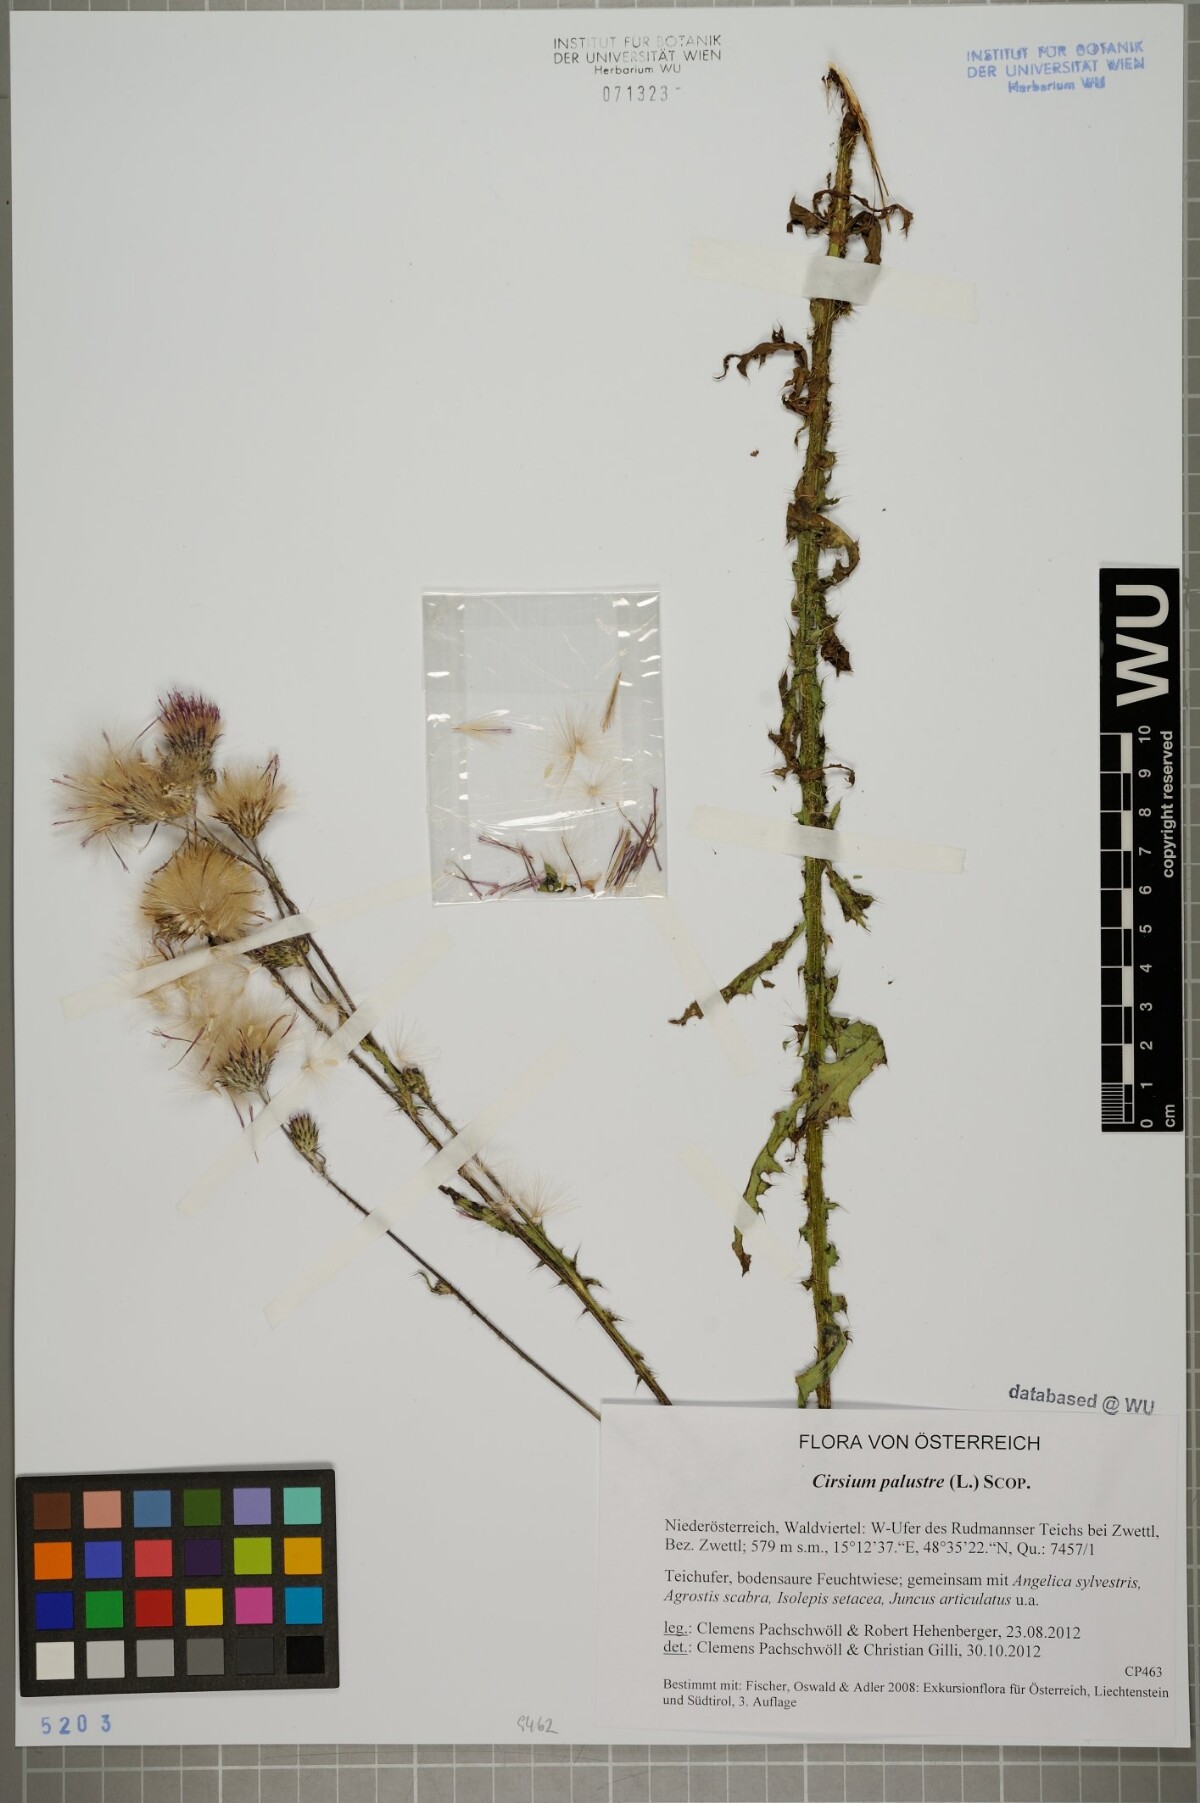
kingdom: Plantae
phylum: Tracheophyta
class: Magnoliopsida
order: Asterales
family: Asteraceae
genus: Cirsium
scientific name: Cirsium palustre
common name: Marsh thistle
